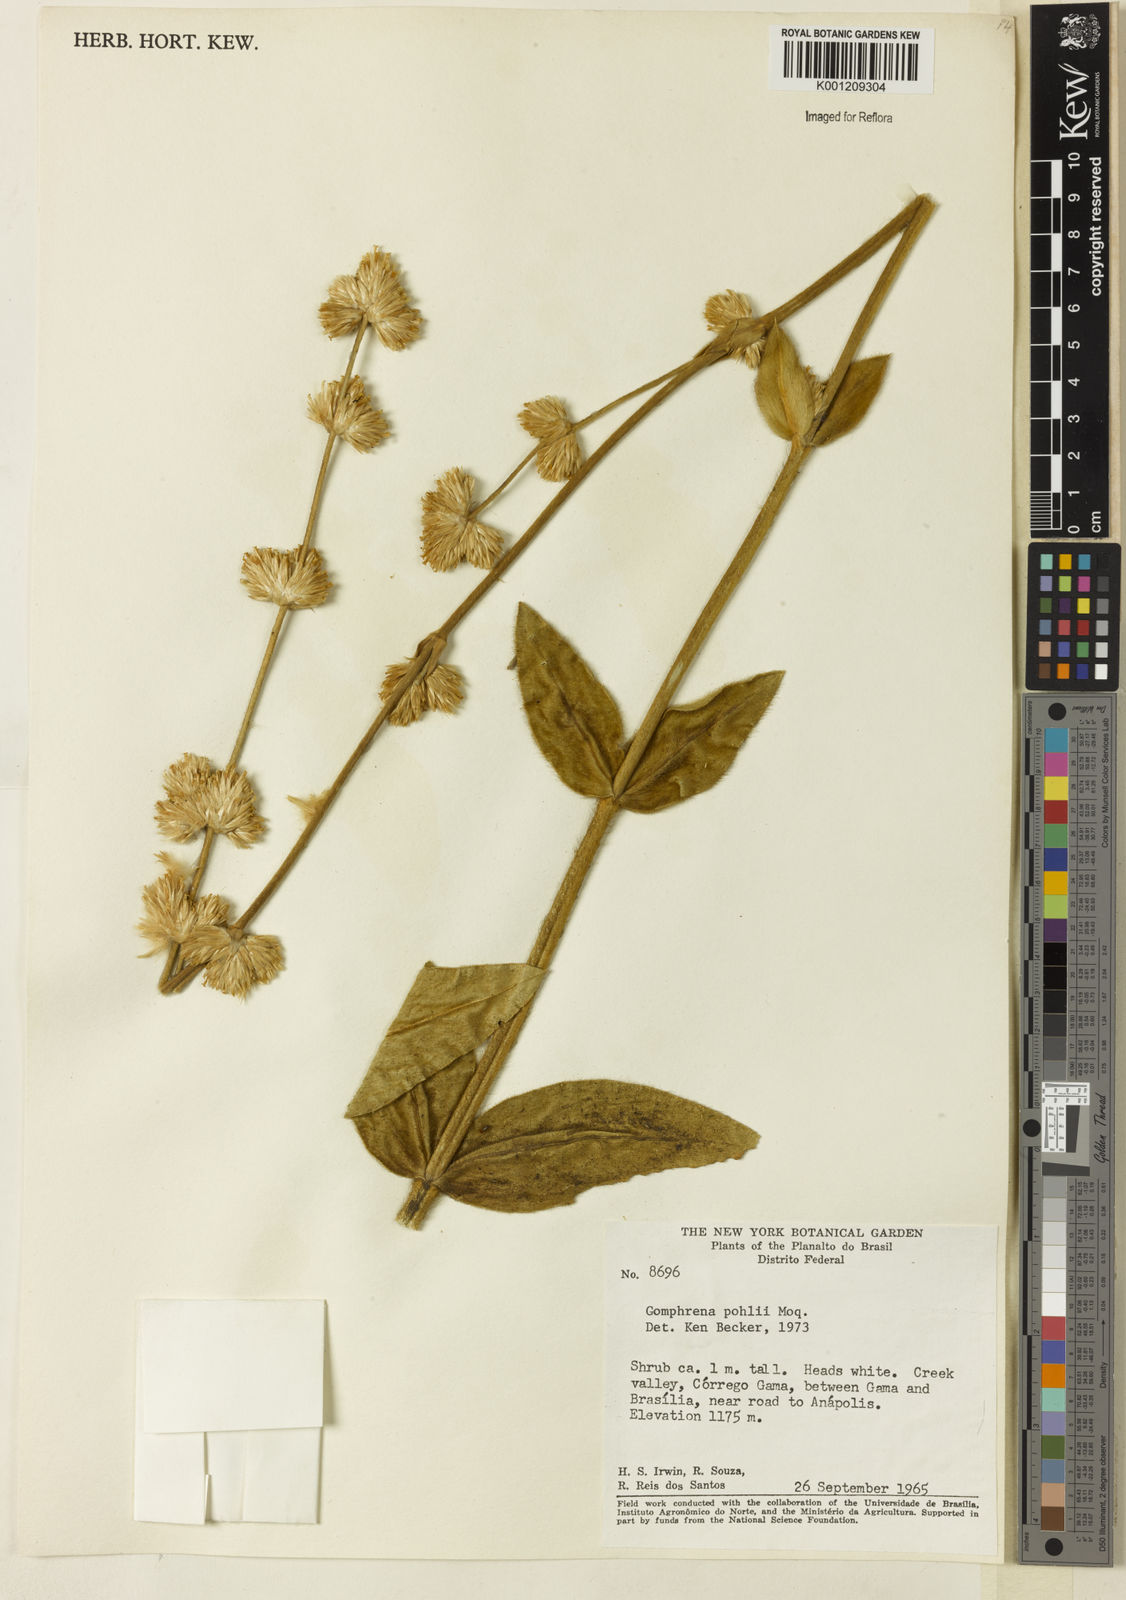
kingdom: Plantae
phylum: Tracheophyta
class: Magnoliopsida
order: Caryophyllales
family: Amaranthaceae
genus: Gomphrena
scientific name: Gomphrena pohlii
